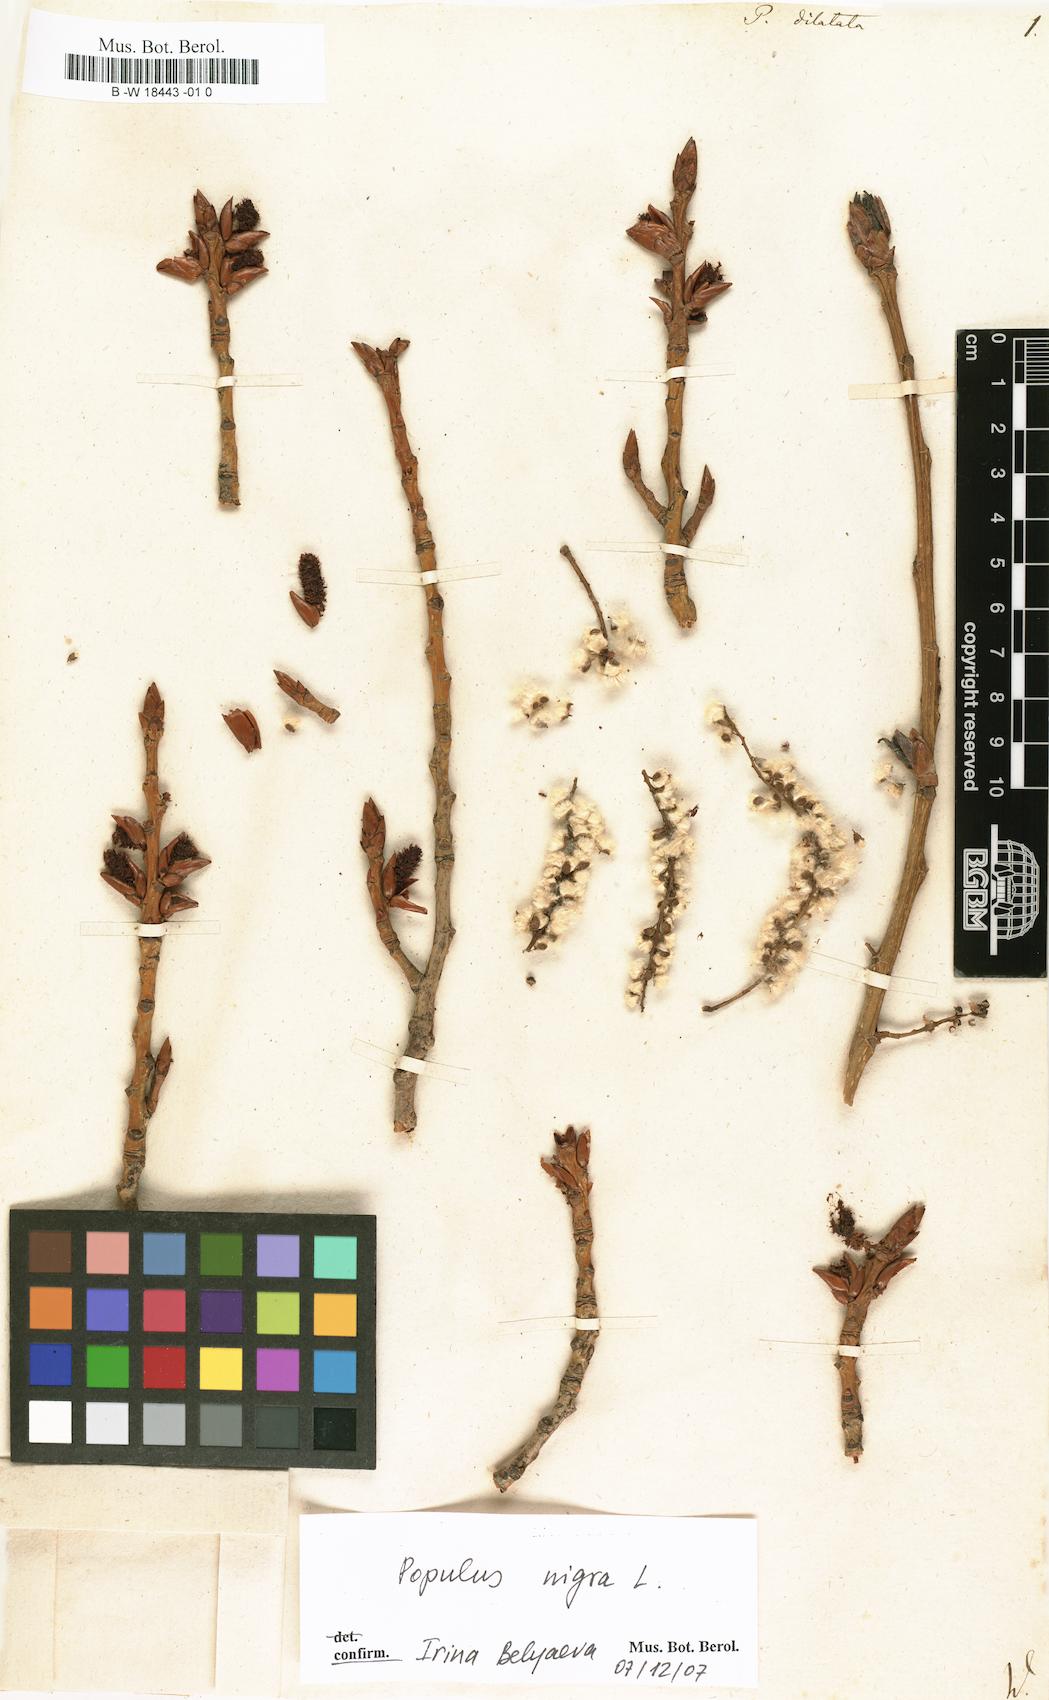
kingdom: Plantae
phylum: Tracheophyta
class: Magnoliopsida
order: Malpighiales
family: Salicaceae
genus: Populus
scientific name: Populus nigra
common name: Black poplar
